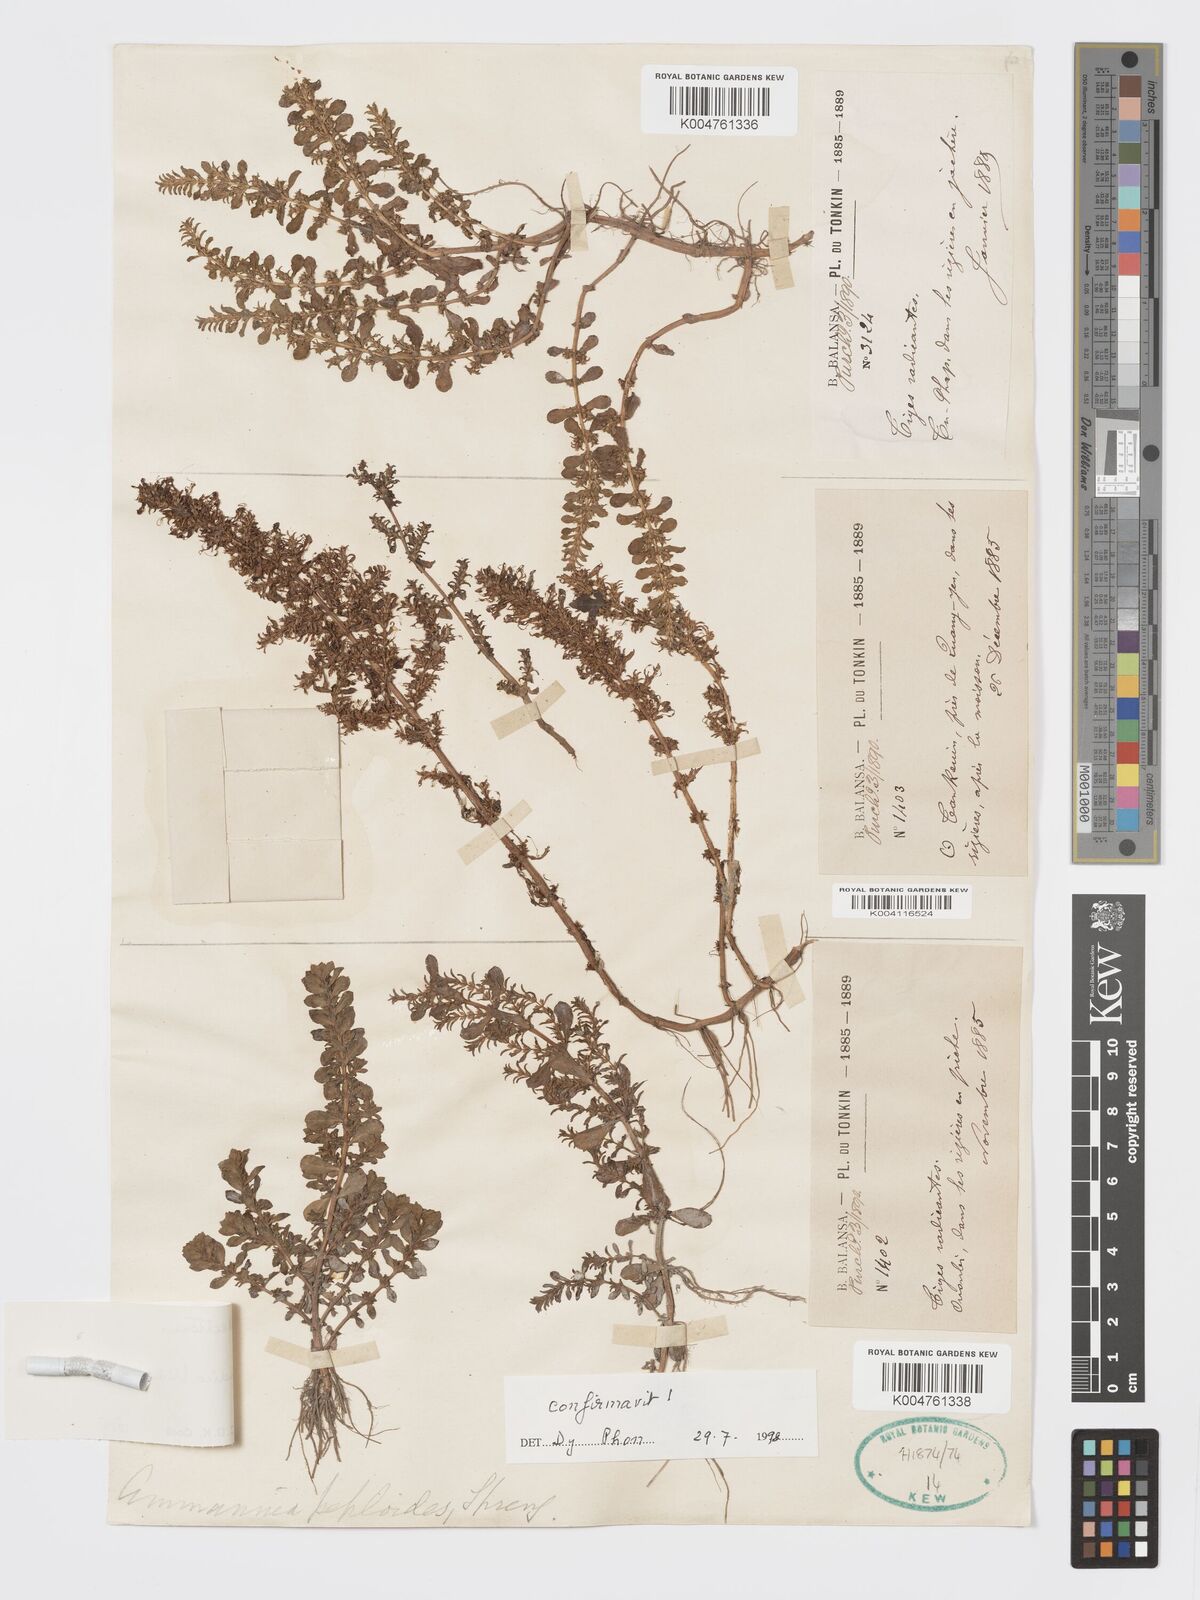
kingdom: Plantae
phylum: Tracheophyta
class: Magnoliopsida
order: Myrtales
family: Lythraceae
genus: Rotala
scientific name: Rotala indica
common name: Indian toothcup
